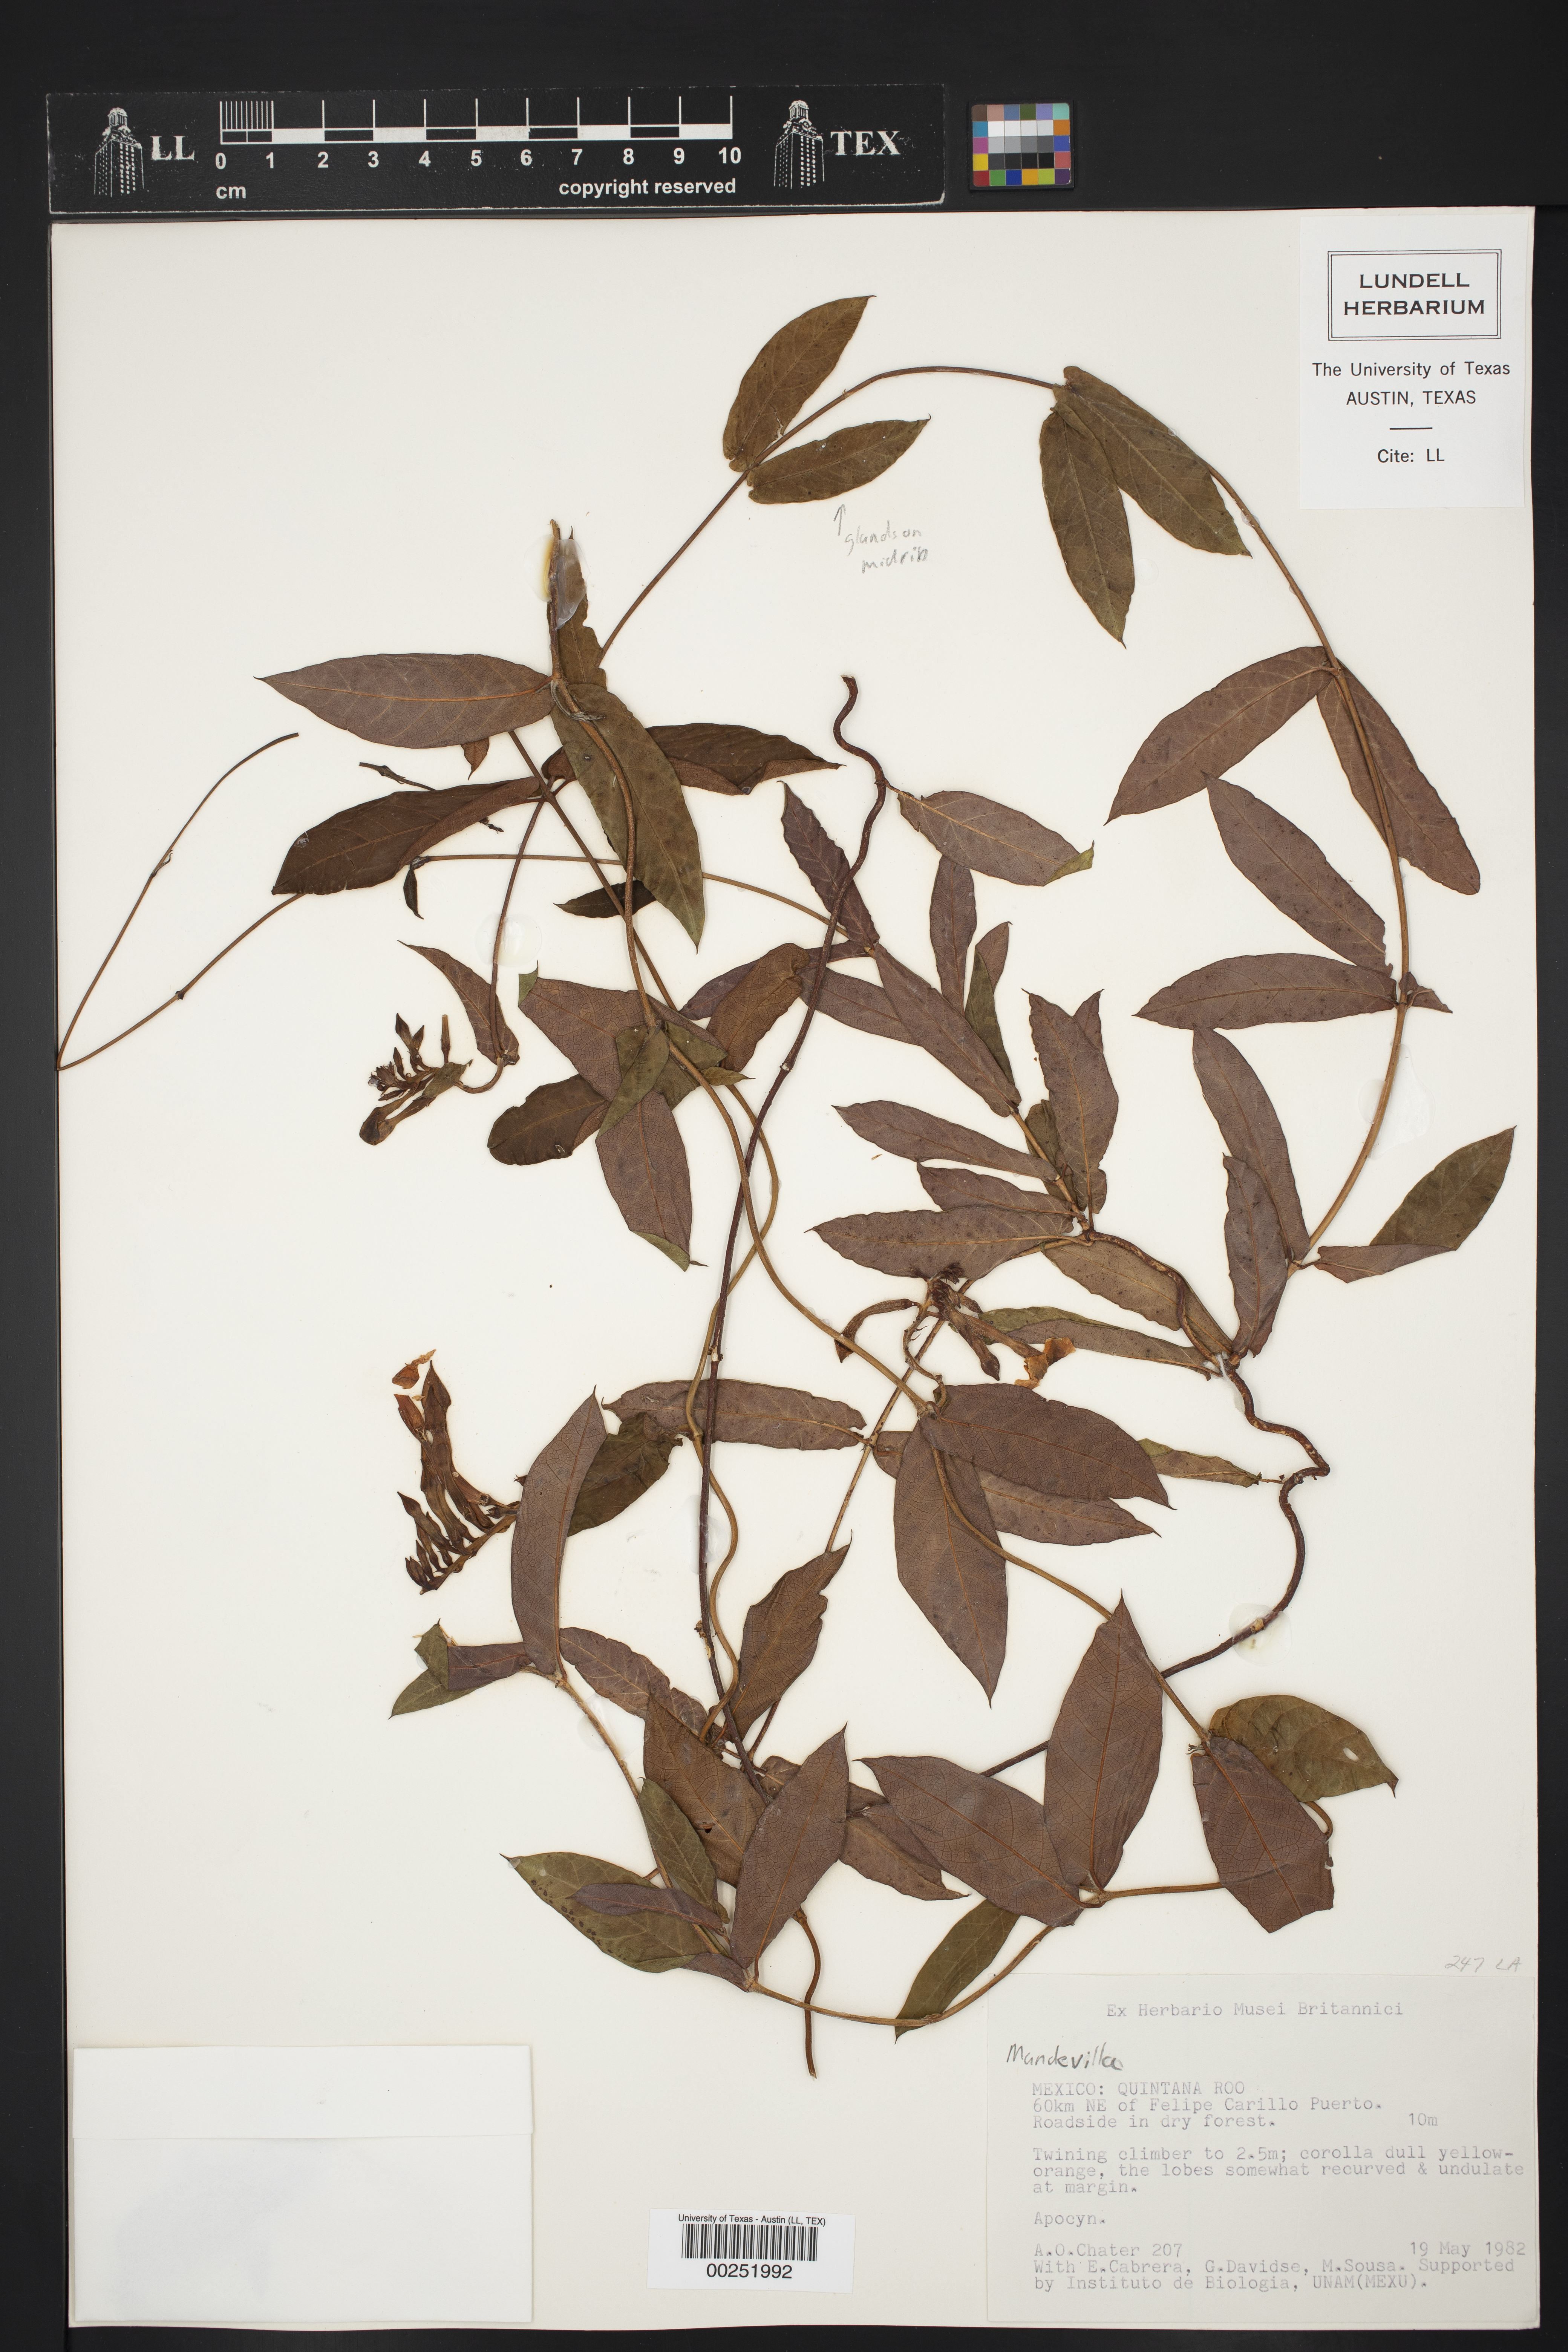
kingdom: Plantae
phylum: Tracheophyta
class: Magnoliopsida
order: Gentianales
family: Apocynaceae
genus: Mandevilla
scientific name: Mandevilla subsagittata
